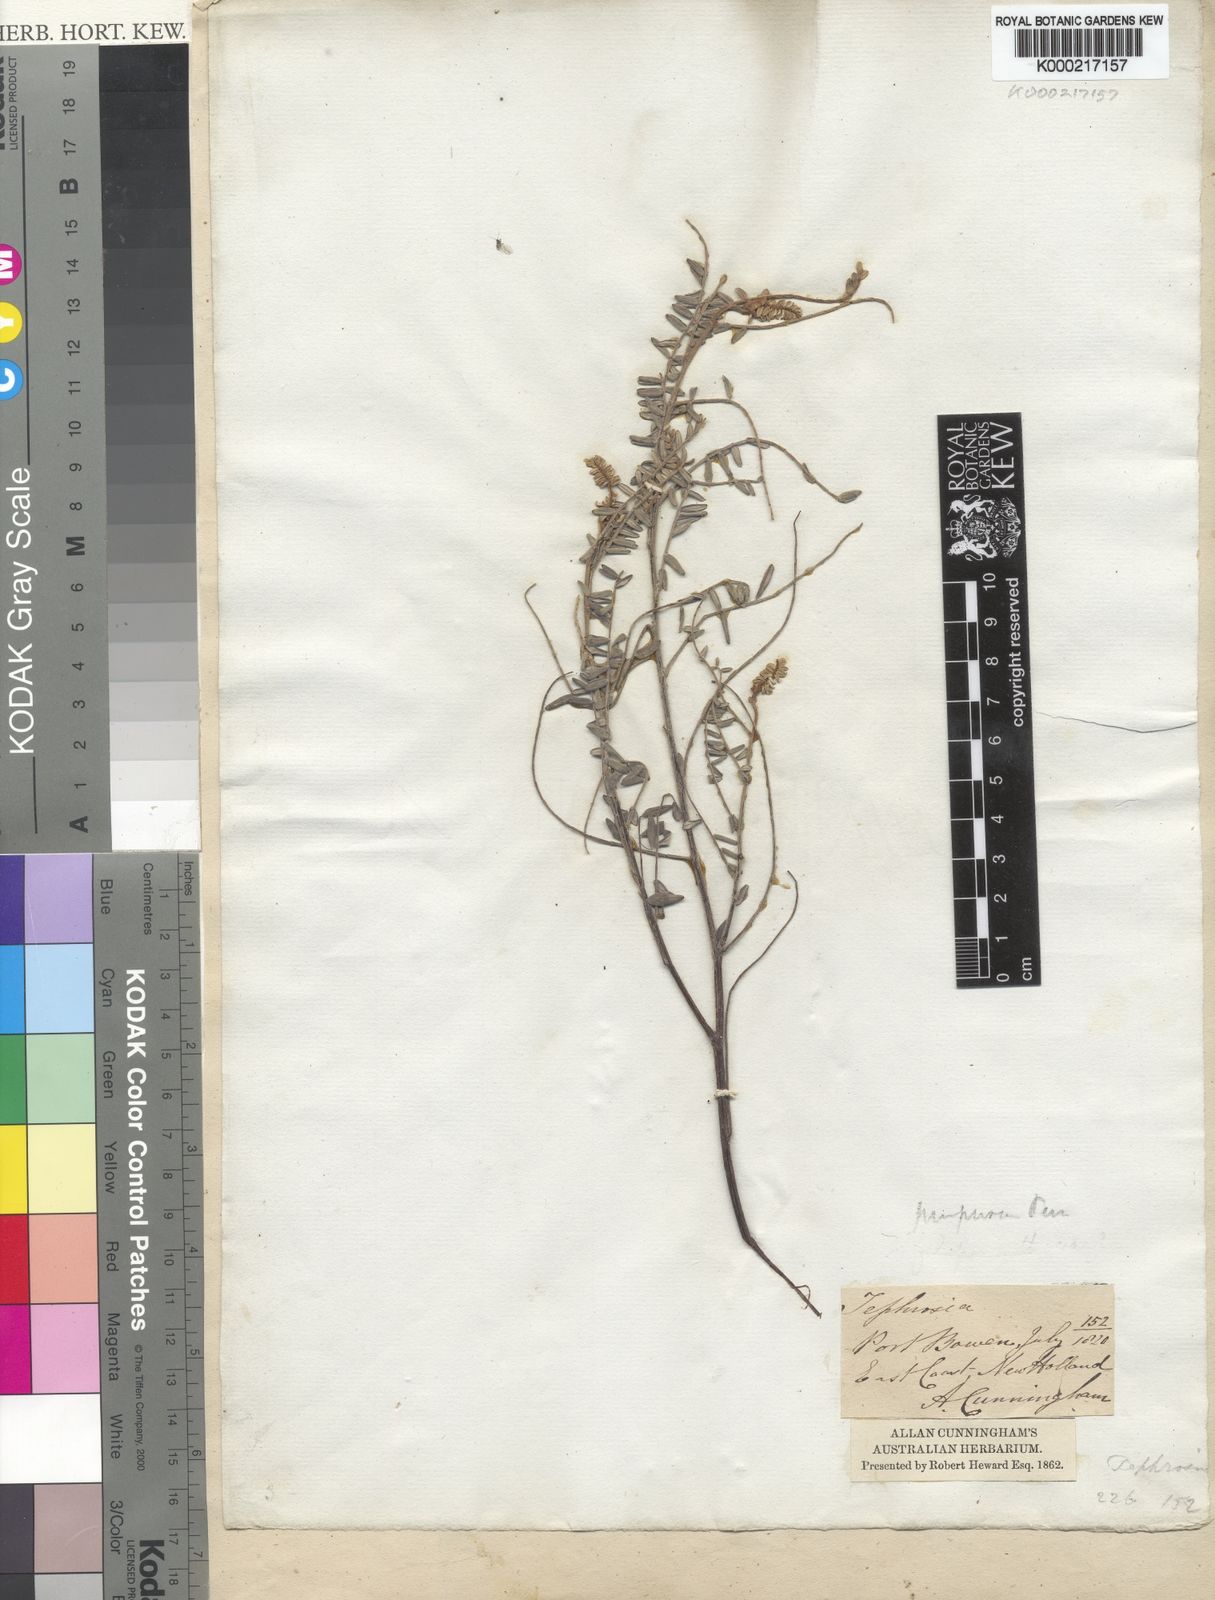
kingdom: Plantae
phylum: Tracheophyta
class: Magnoliopsida
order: Fabales
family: Fabaceae
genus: Tephrosia
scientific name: Tephrosia purpurea
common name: Fishpoison
